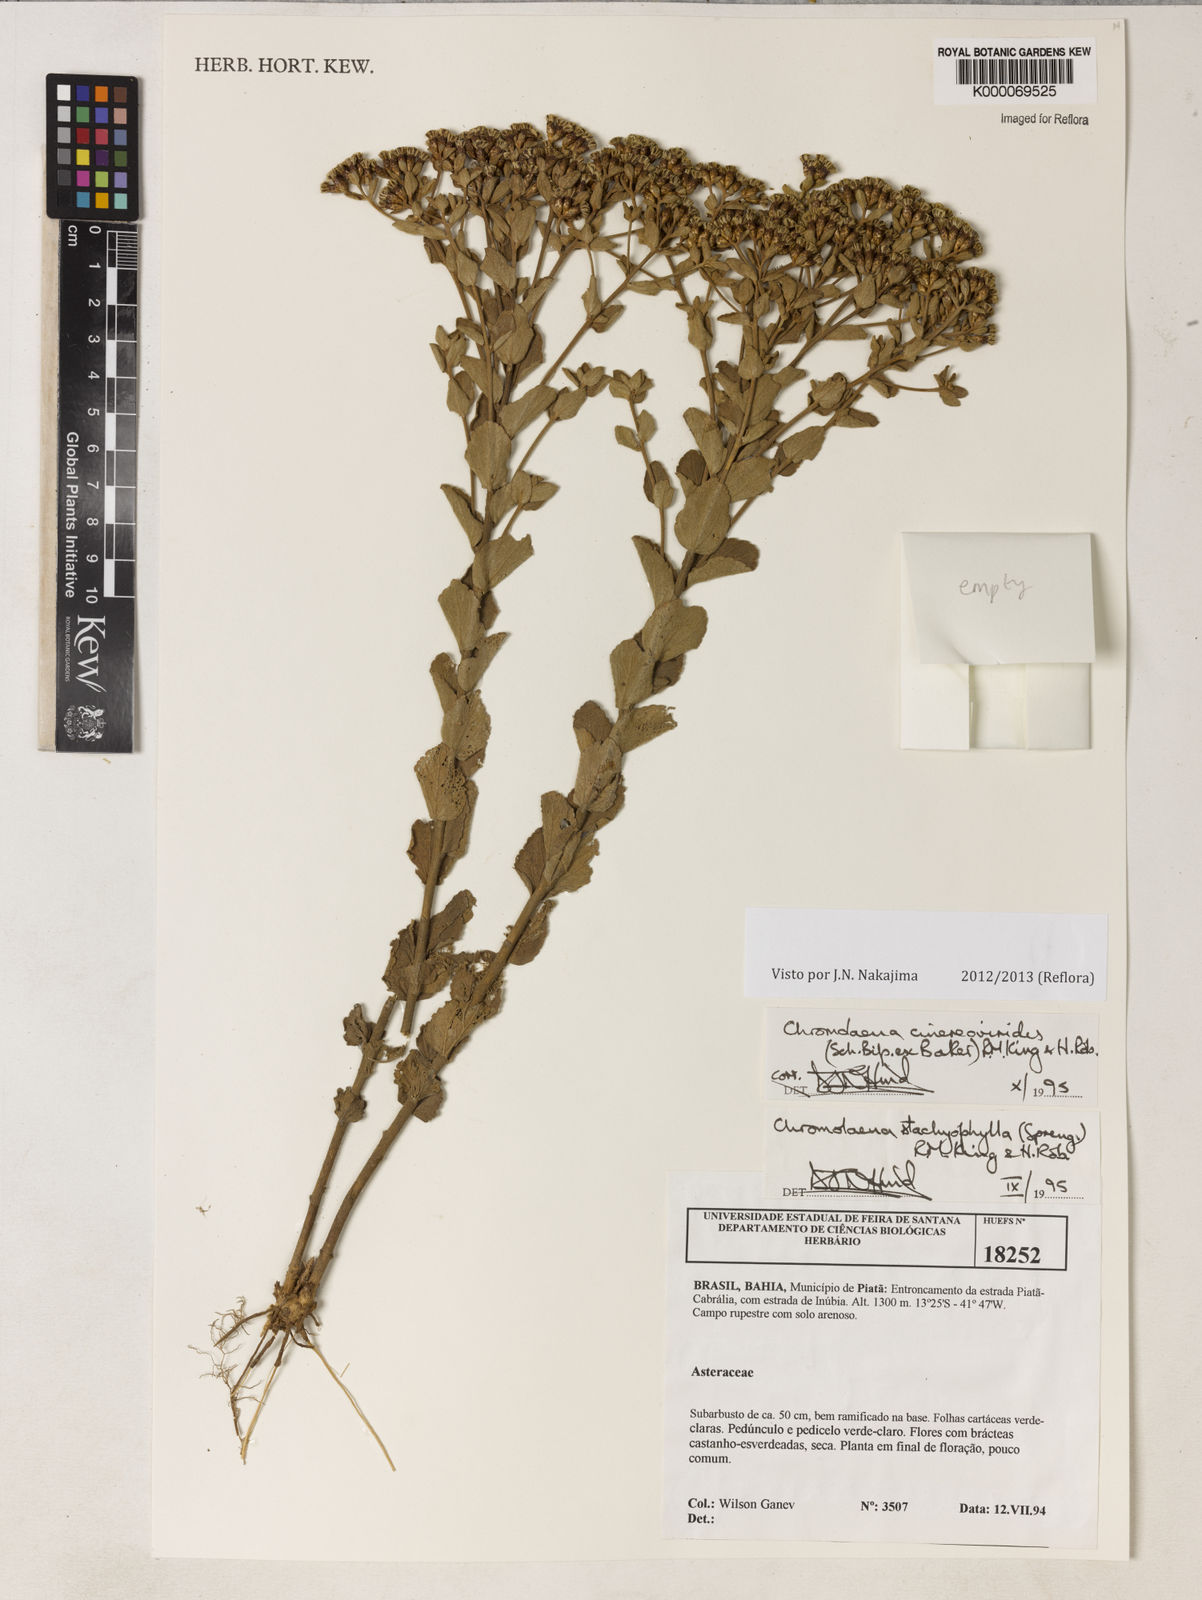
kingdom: Plantae
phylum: Tracheophyta
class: Magnoliopsida
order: Asterales
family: Asteraceae
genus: Chromolaena
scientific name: Chromolaena cinereoviridis
